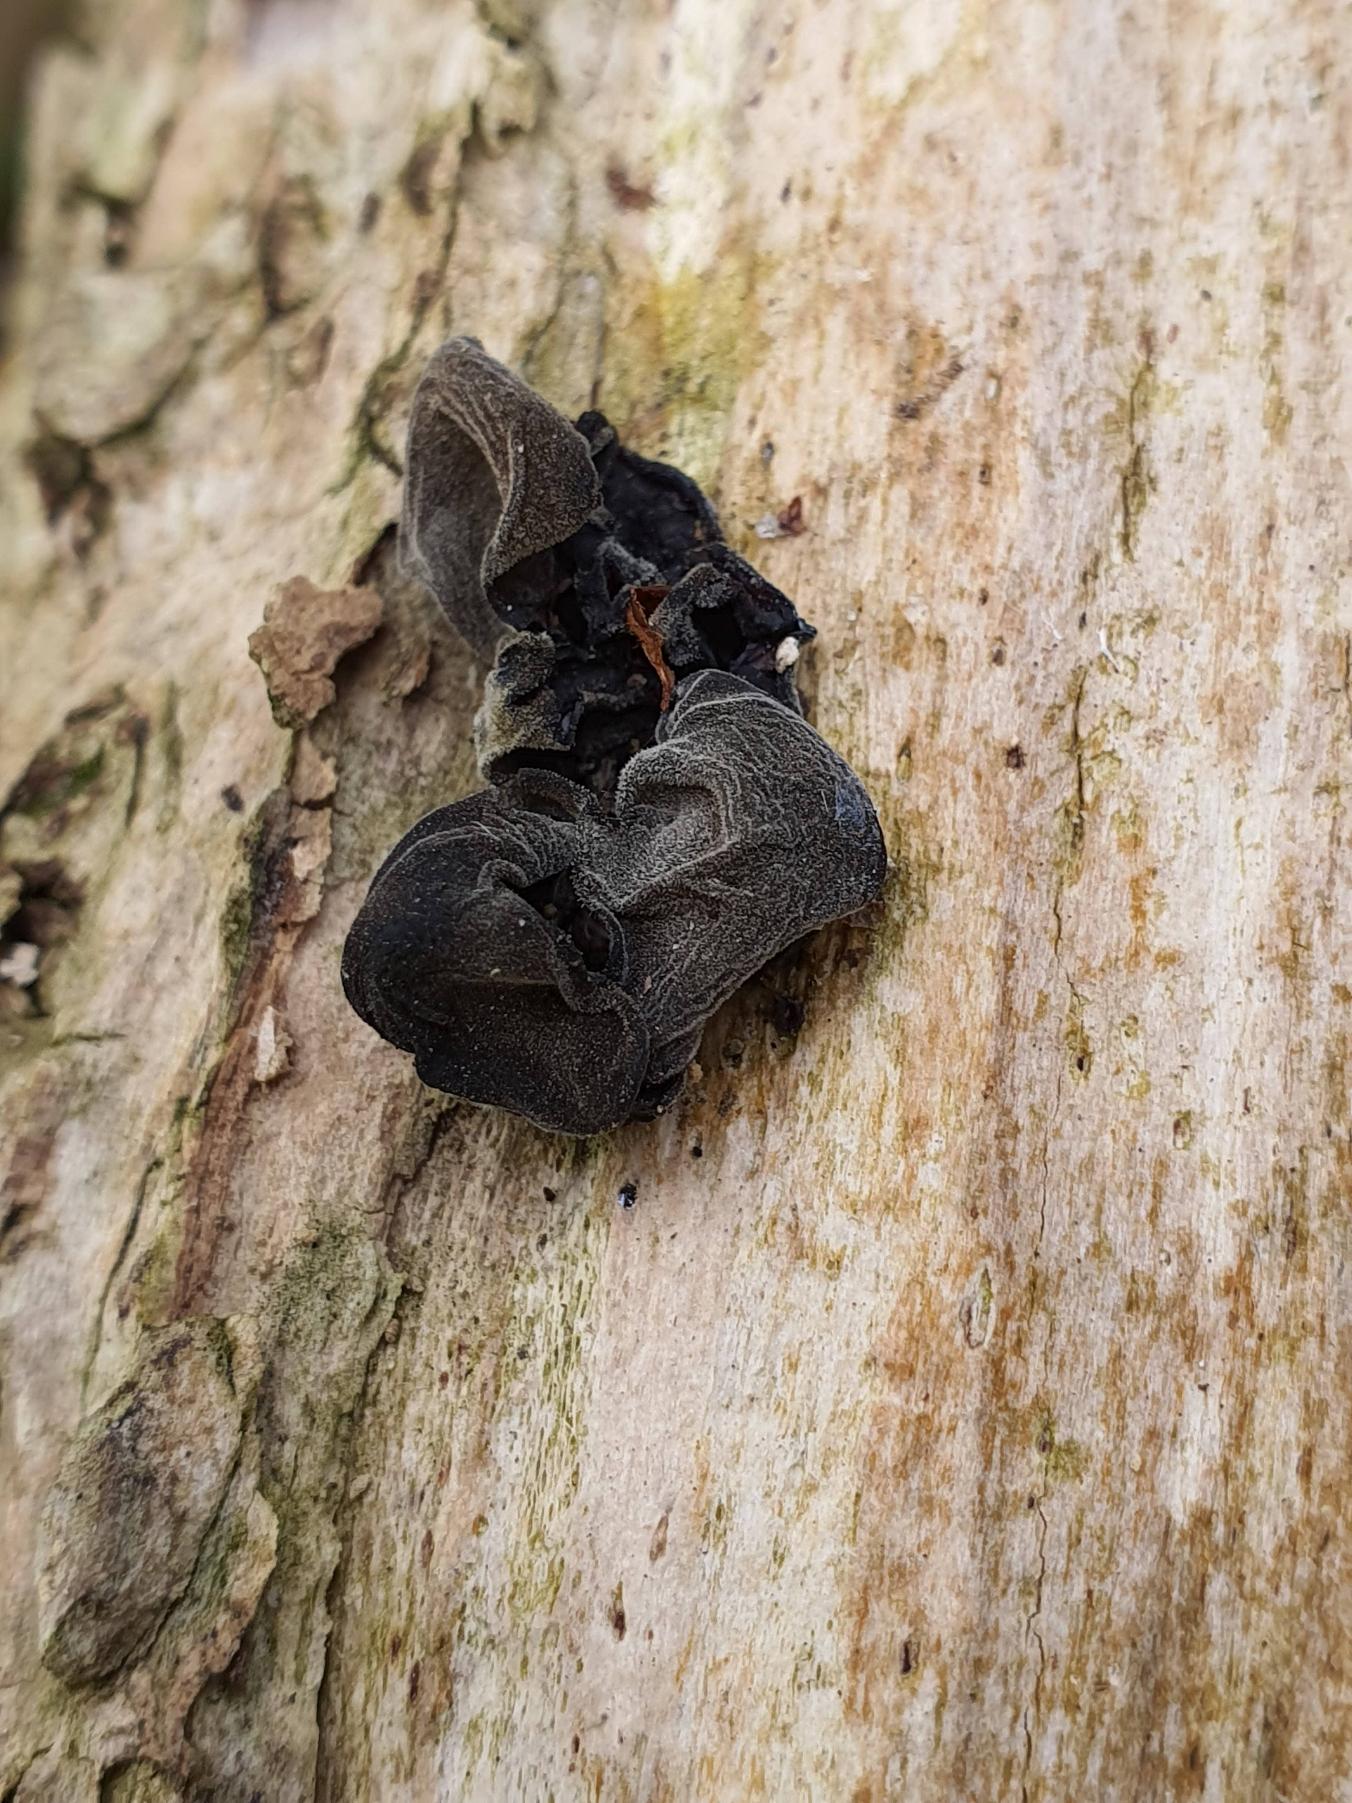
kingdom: Fungi
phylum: Basidiomycota
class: Agaricomycetes
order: Auriculariales
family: Auriculariaceae
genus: Auricularia
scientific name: Auricularia auricula-judae
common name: Almindelig judasøre
